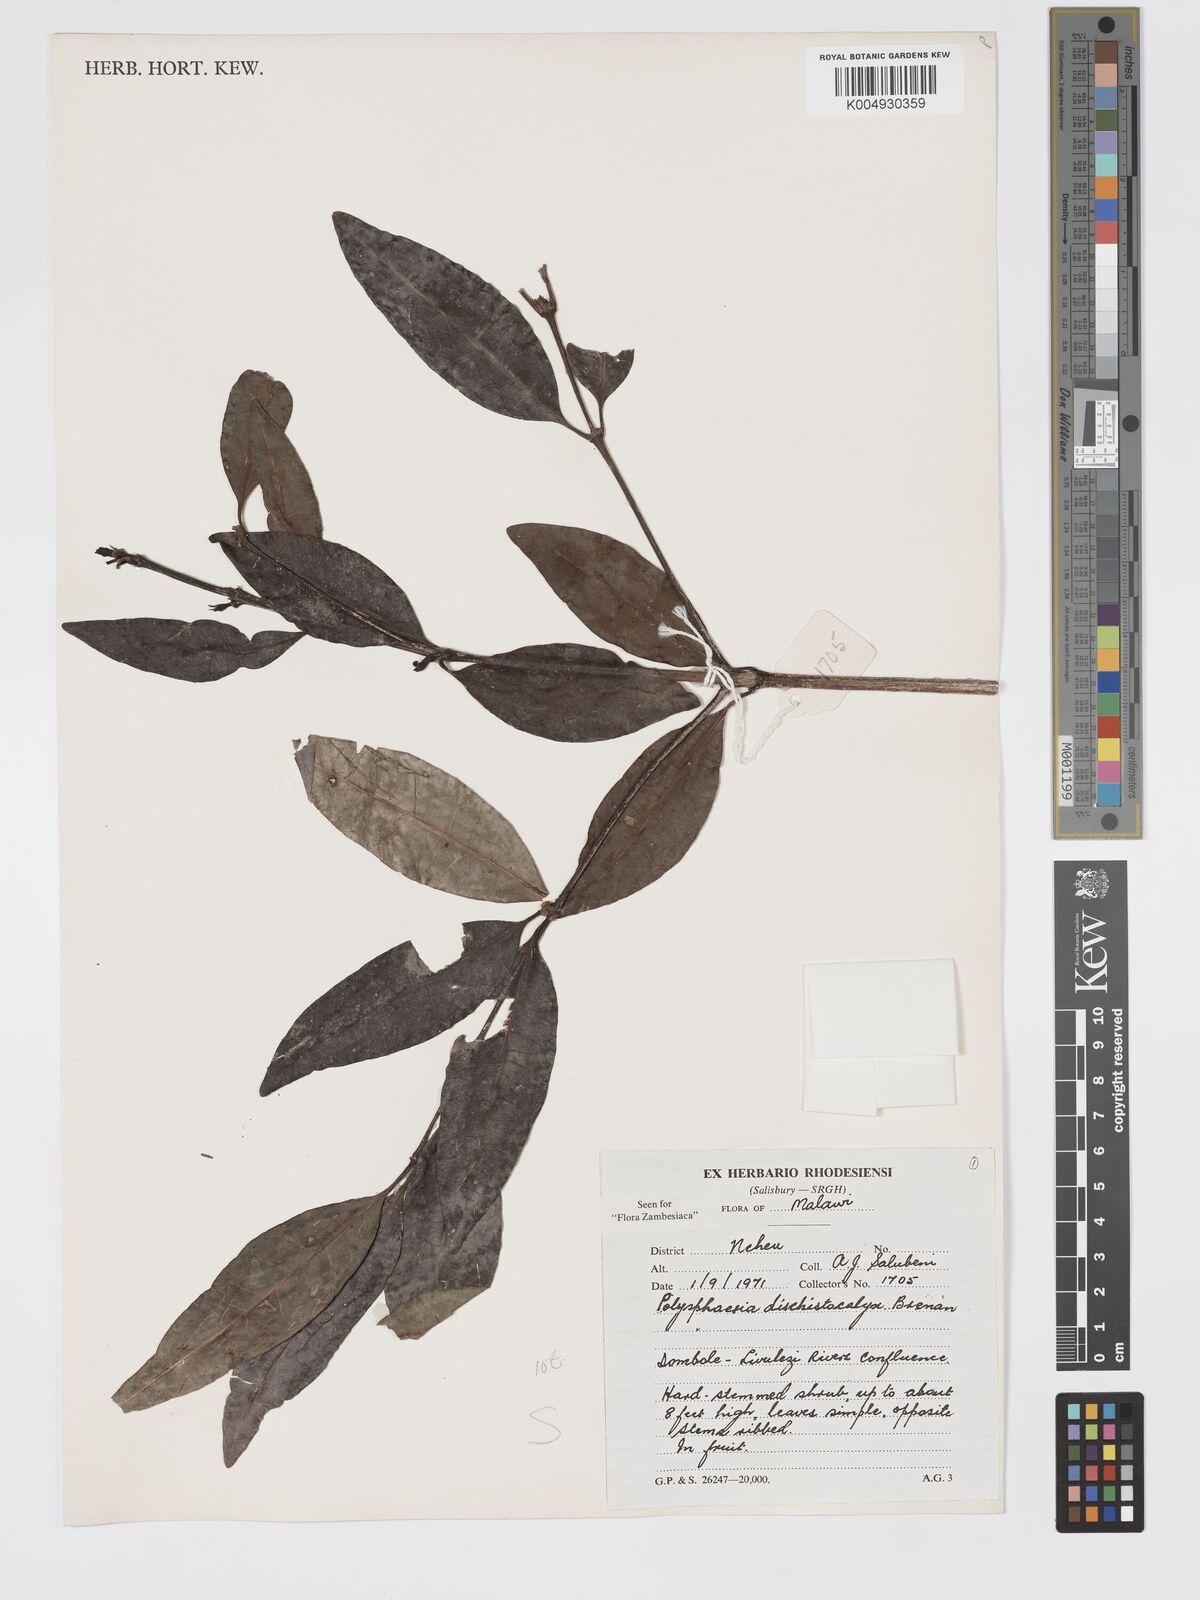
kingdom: Plantae
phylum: Tracheophyta
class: Magnoliopsida
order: Gentianales
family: Rubiaceae
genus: Polysphaeria
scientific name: Polysphaeria dischistocalyx
